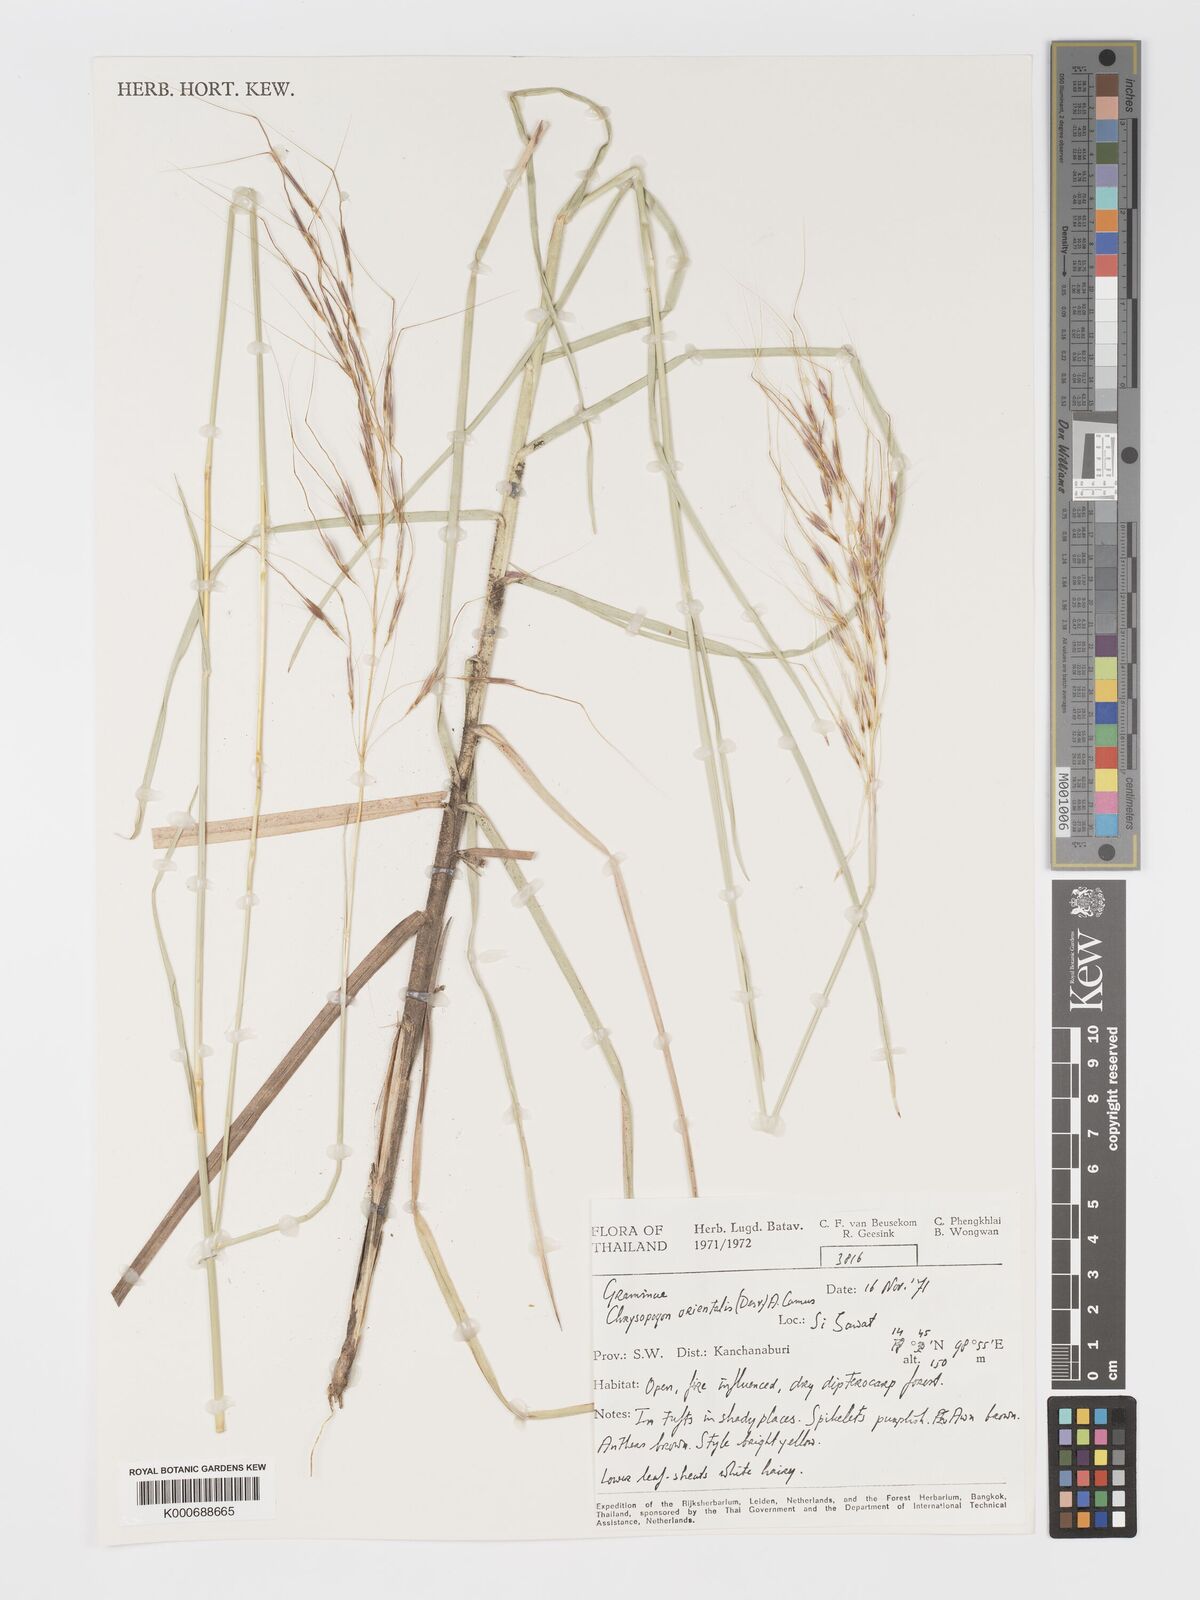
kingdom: Plantae
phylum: Tracheophyta
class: Liliopsida
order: Poales
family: Poaceae
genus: Chrysopogon
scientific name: Chrysopogon orientalis
